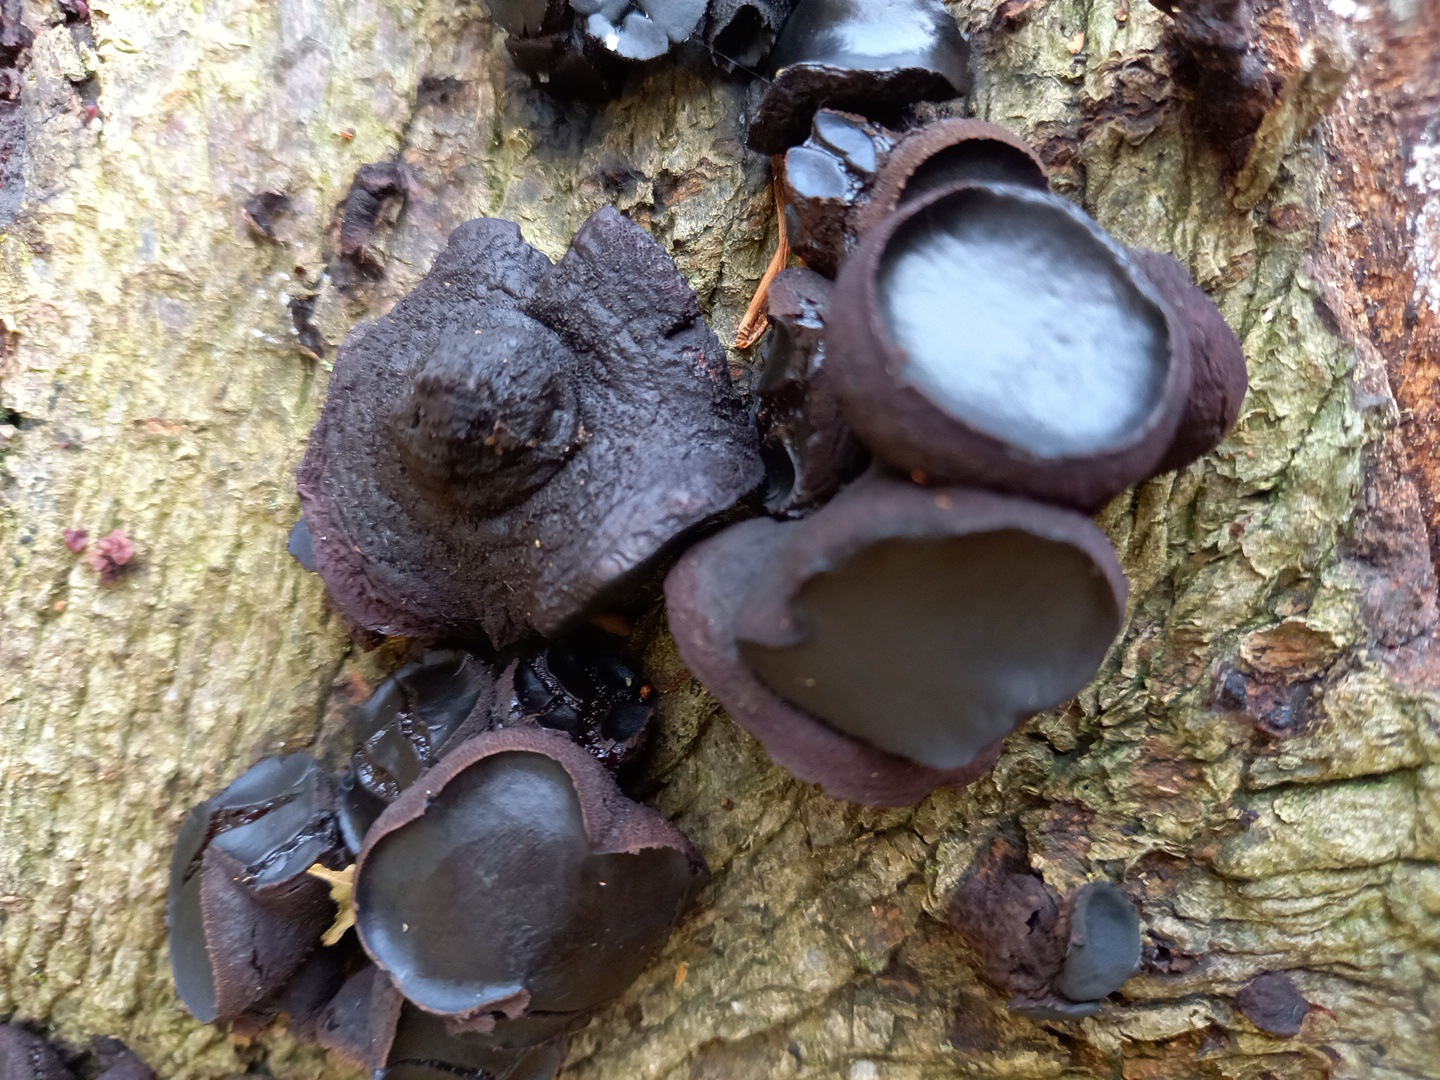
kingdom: Fungi
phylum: Ascomycota
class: Leotiomycetes
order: Phacidiales
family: Phacidiaceae
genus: Bulgaria
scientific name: Bulgaria inquinans
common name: afsmittende topsvamp
